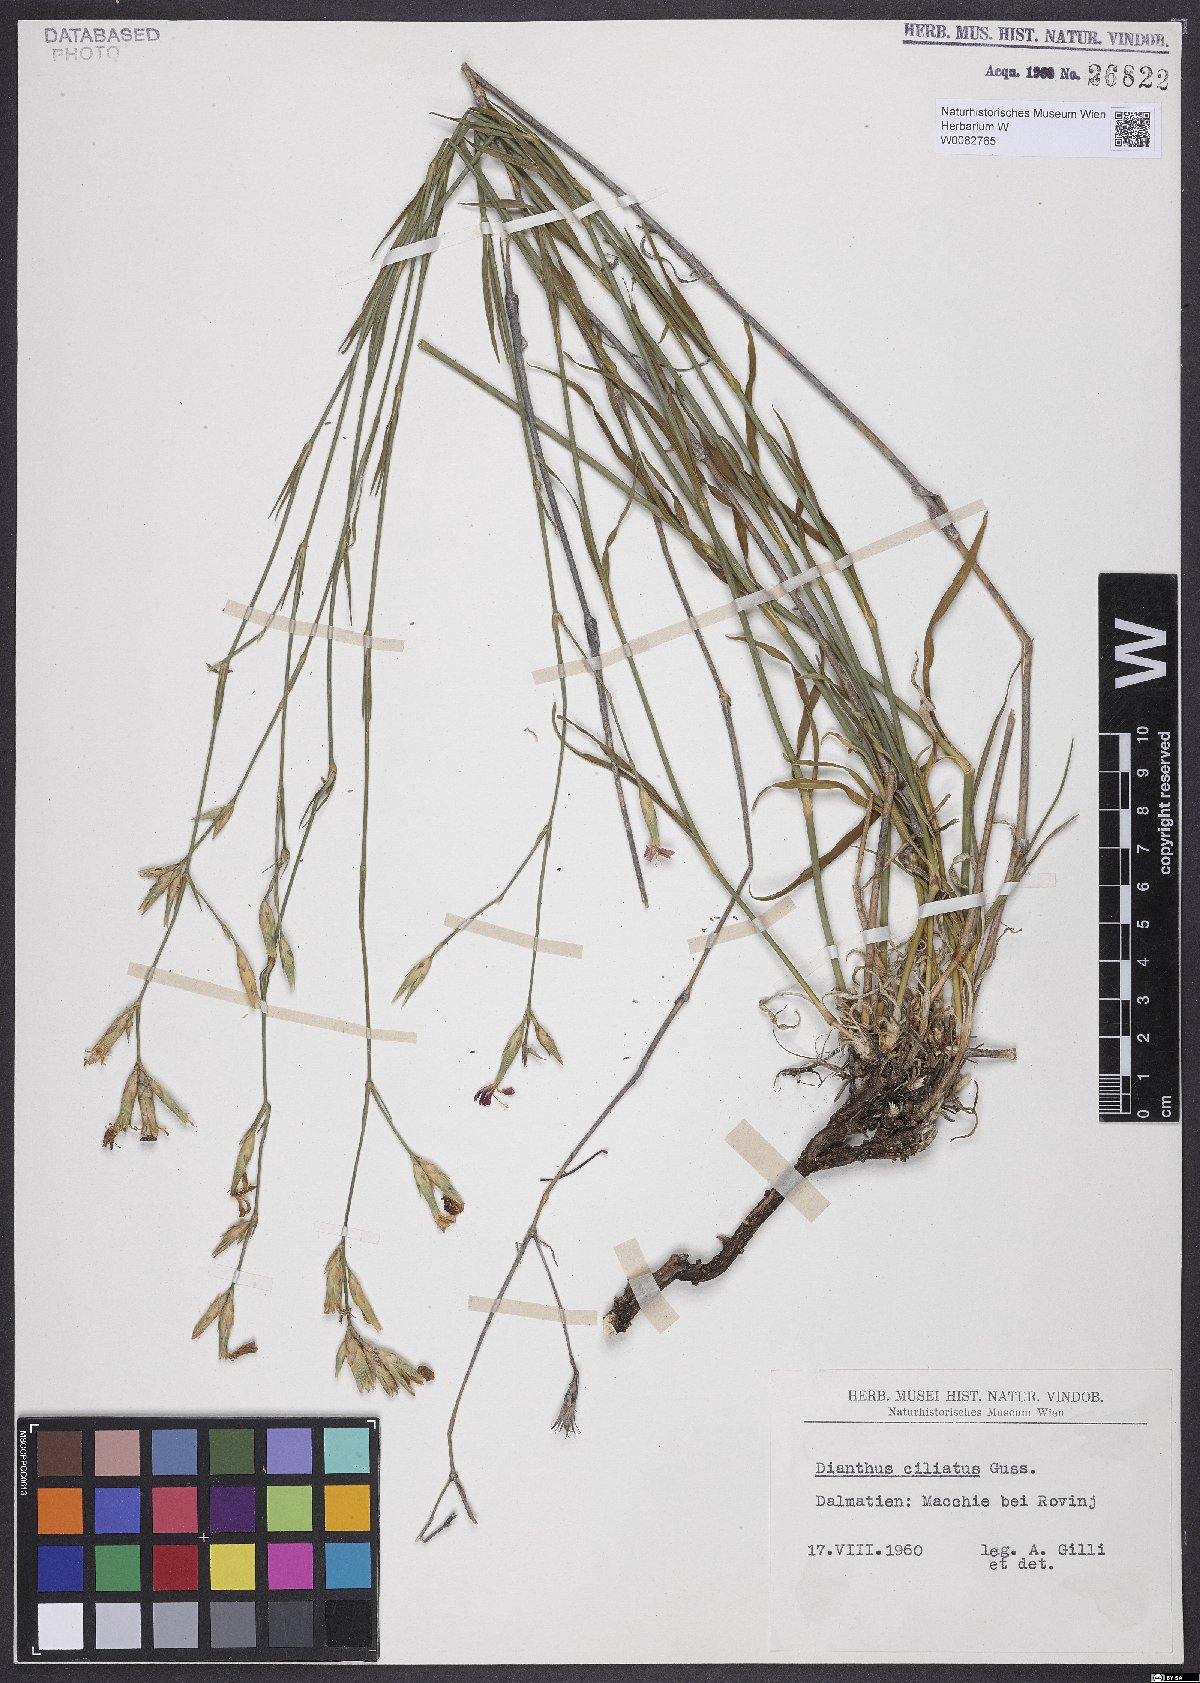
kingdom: Plantae
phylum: Tracheophyta
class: Magnoliopsida
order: Caryophyllales
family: Caryophyllaceae
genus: Dianthus
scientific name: Dianthus ciliatus
